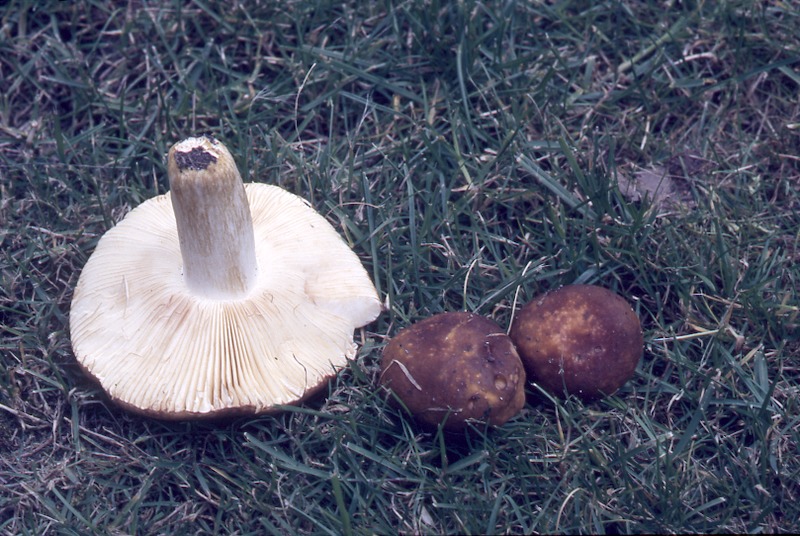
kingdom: Fungi
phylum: Basidiomycota
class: Agaricomycetes
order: Russulales
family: Russulaceae
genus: Russula
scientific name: Russula faginea
